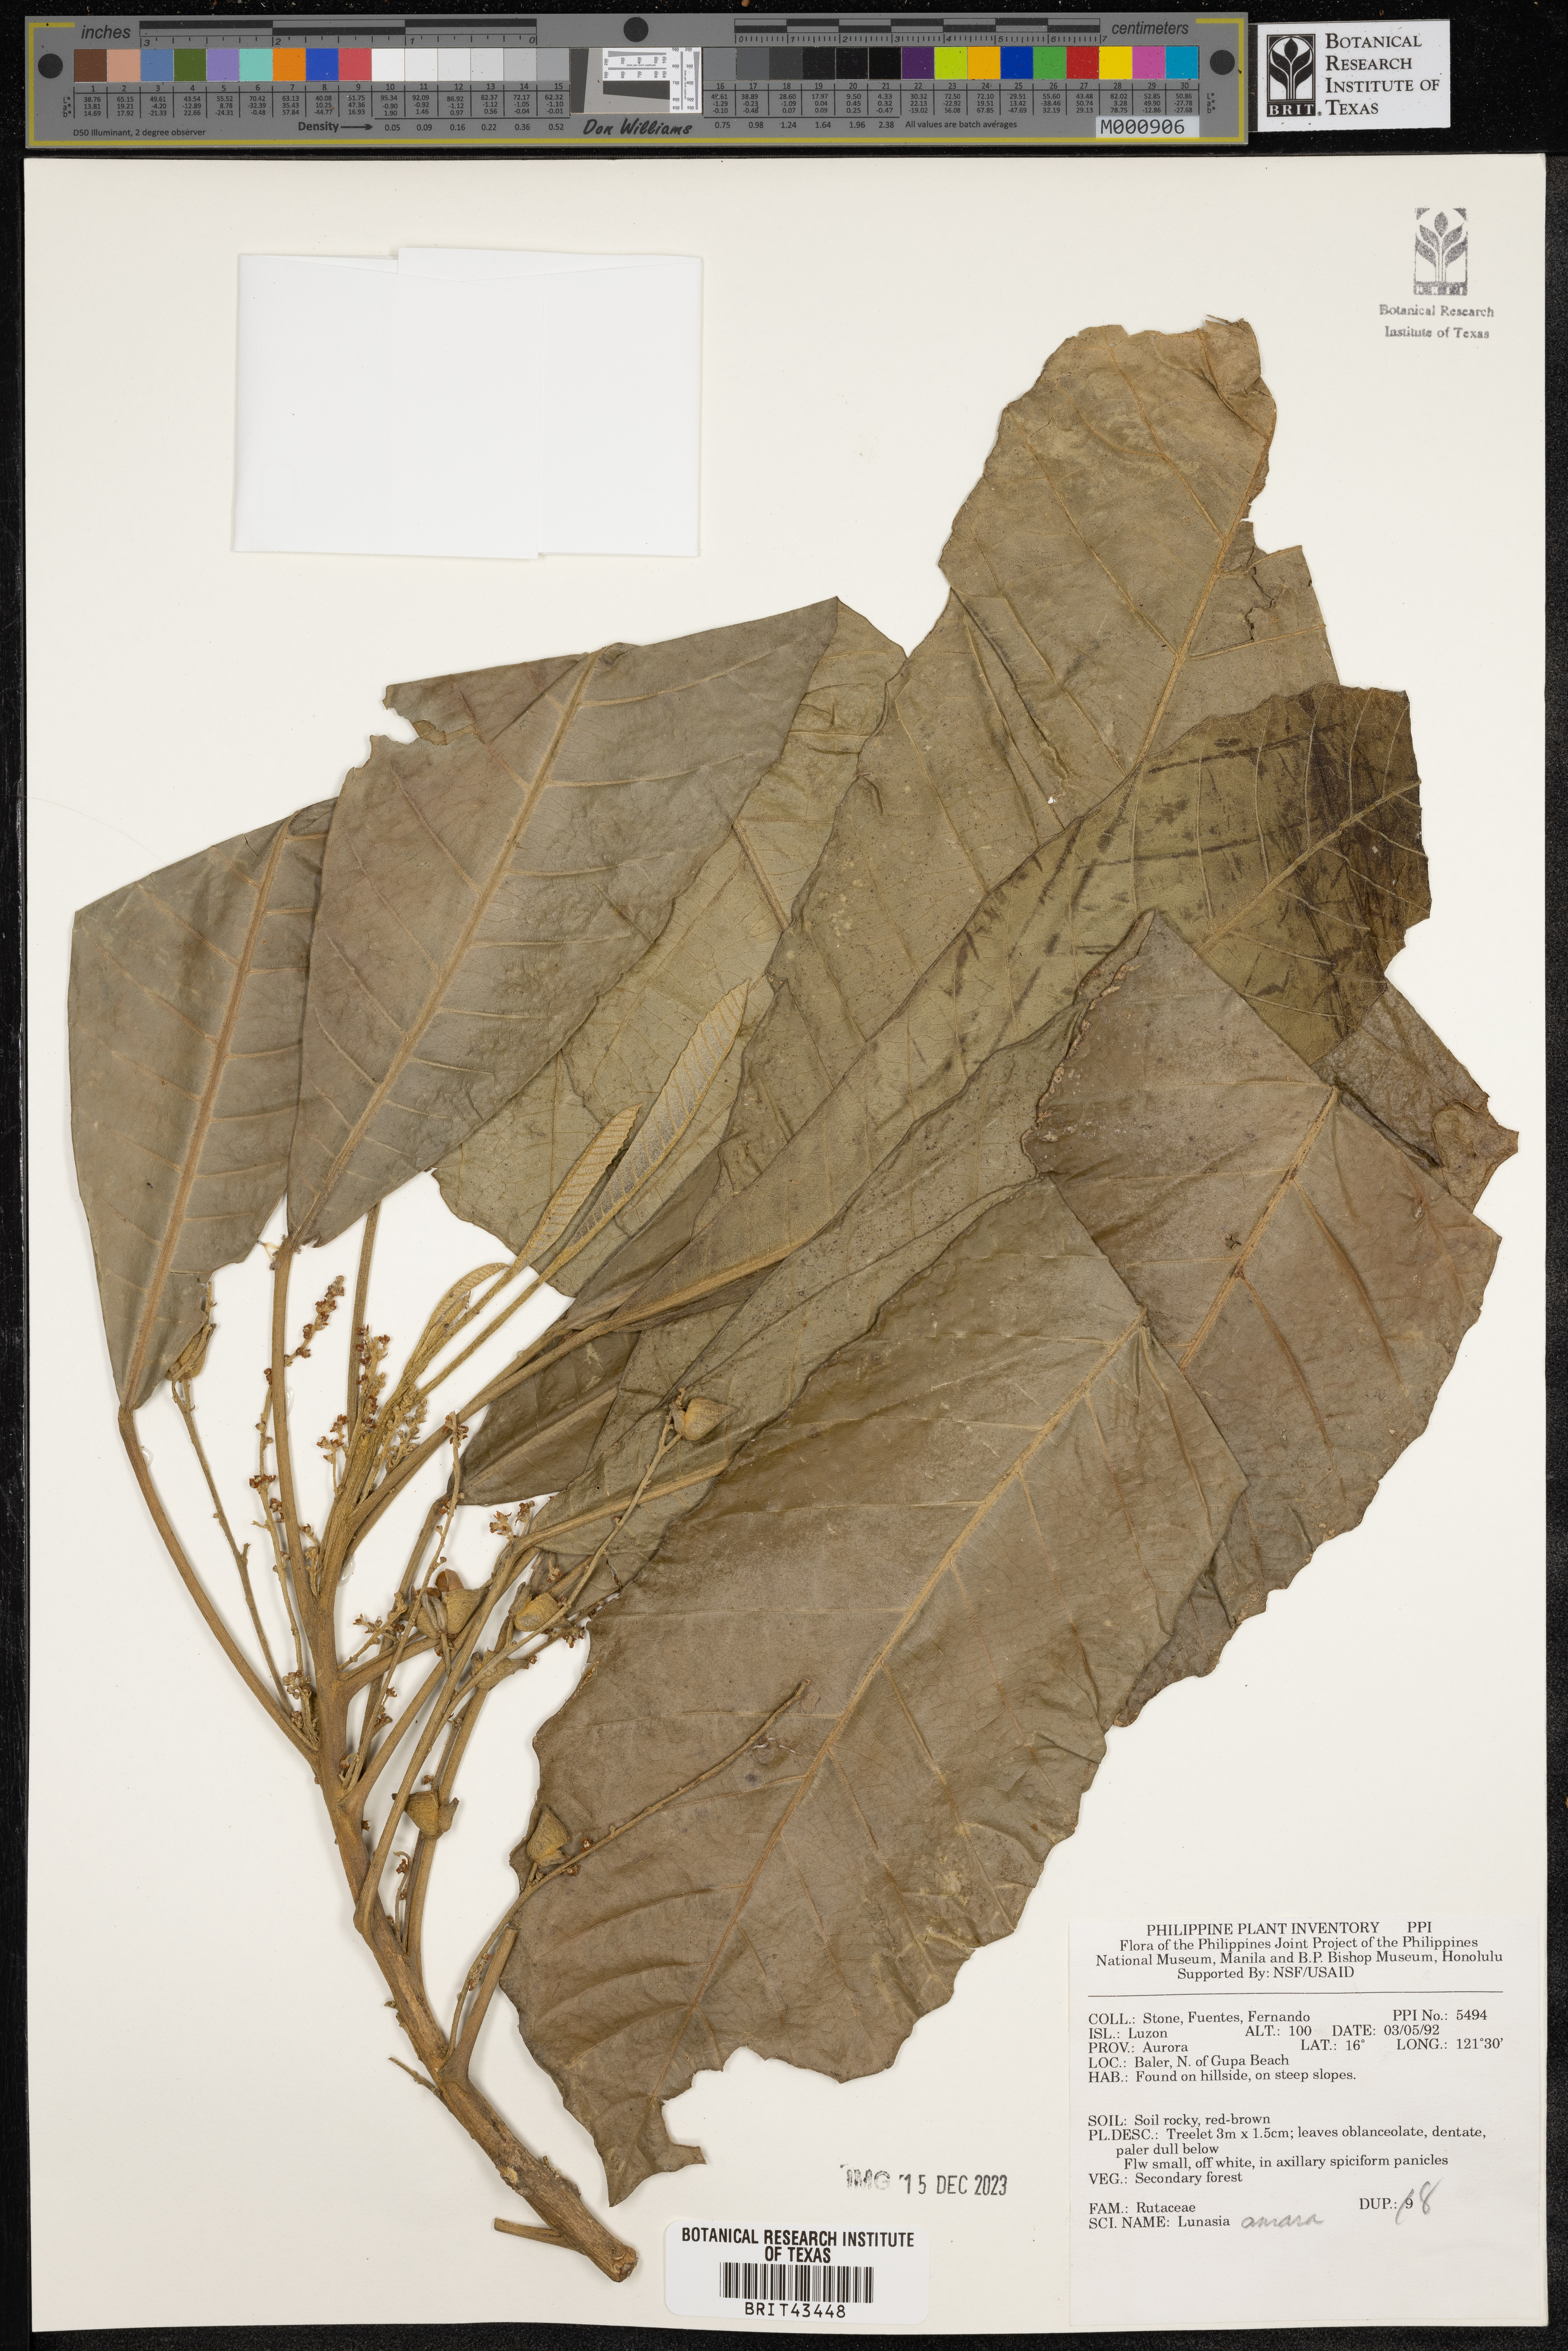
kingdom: Plantae
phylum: Tracheophyta
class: Magnoliopsida
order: Sapindales
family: Rutaceae
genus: Lunasia
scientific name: Lunasia amara
